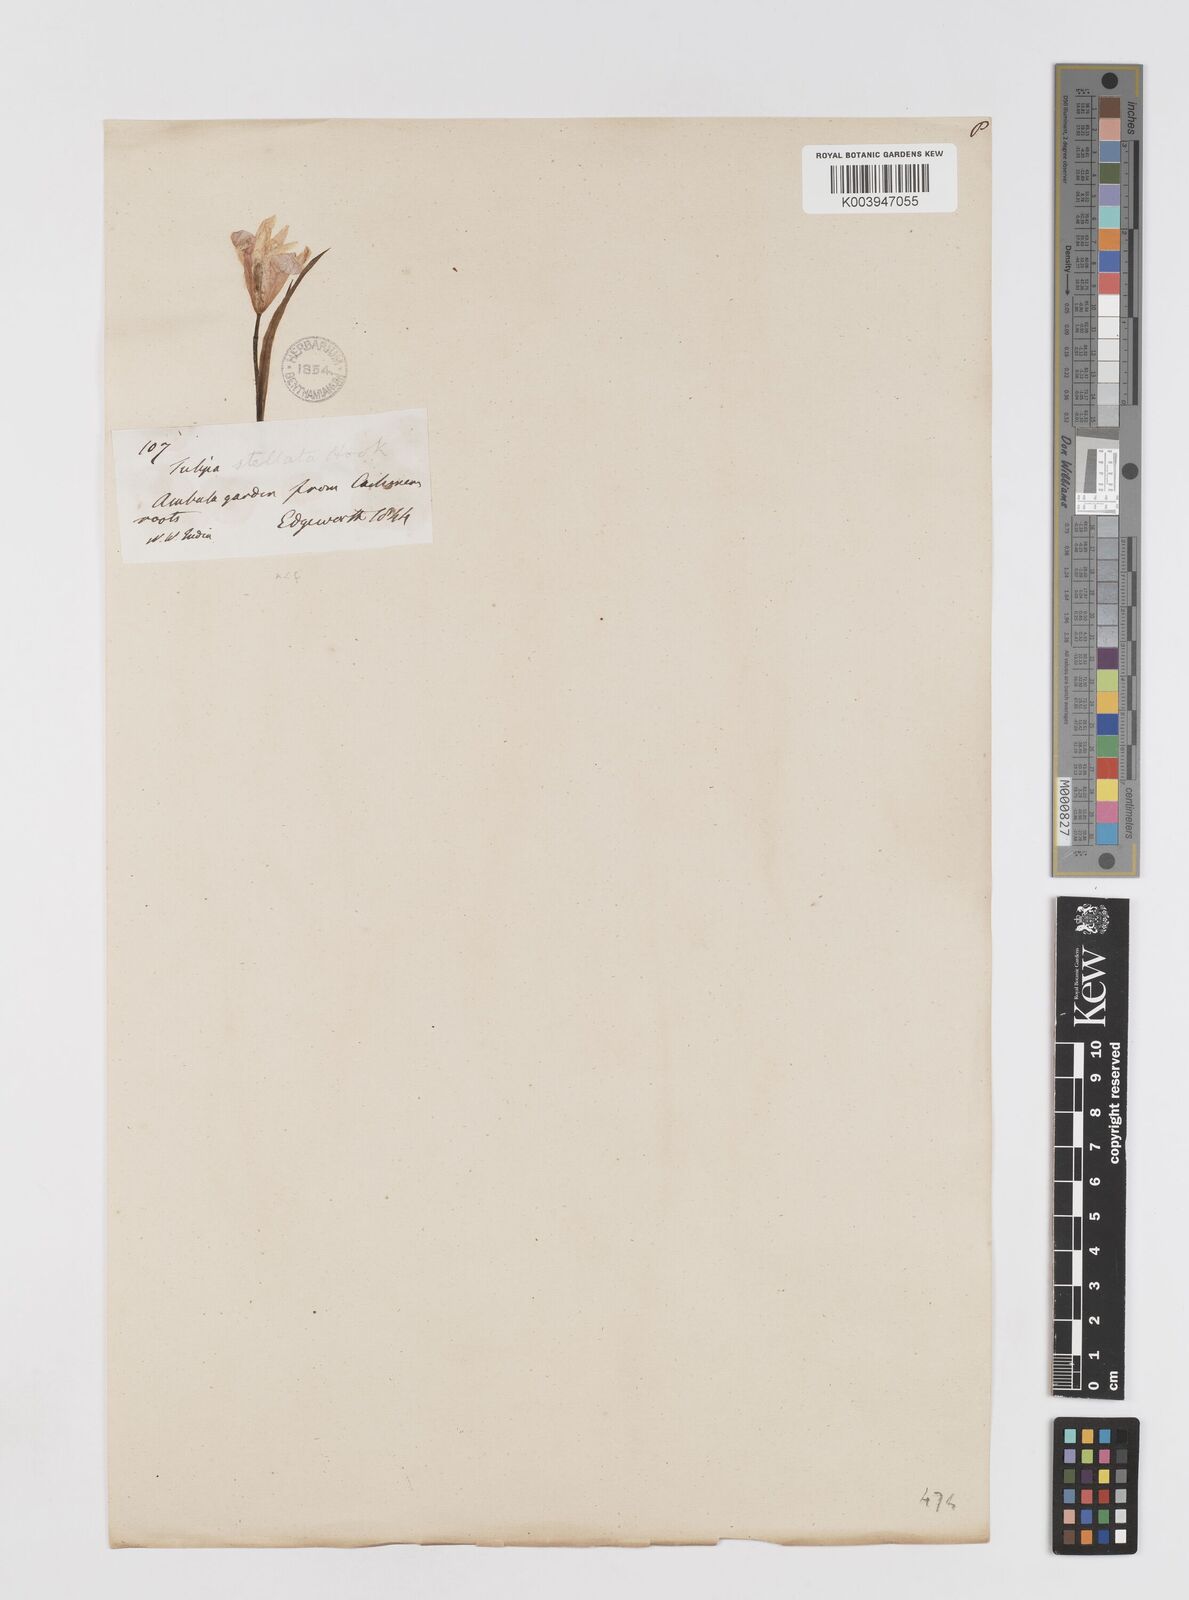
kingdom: Plantae
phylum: Tracheophyta
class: Liliopsida
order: Liliales
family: Liliaceae
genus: Tulipa
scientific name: Tulipa
